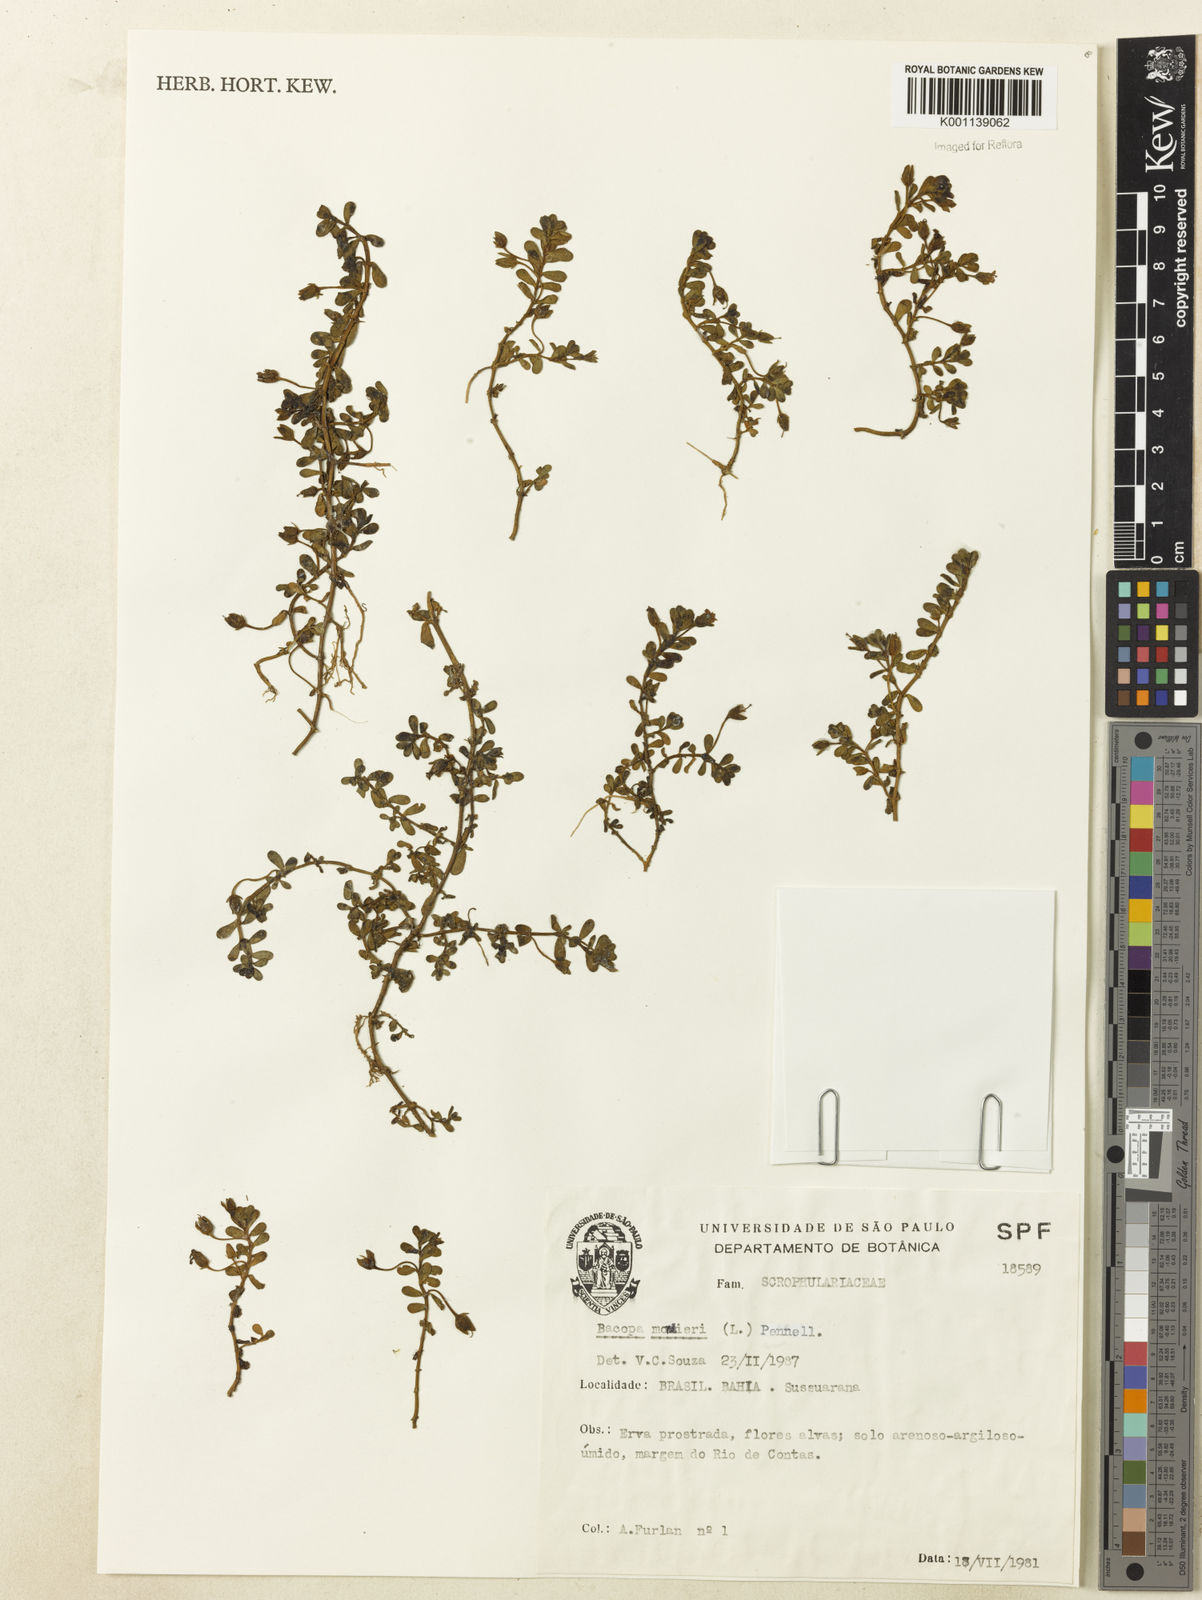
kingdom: Plantae
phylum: Tracheophyta
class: Magnoliopsida
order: Lamiales
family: Plantaginaceae
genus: Bacopa
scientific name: Bacopa
